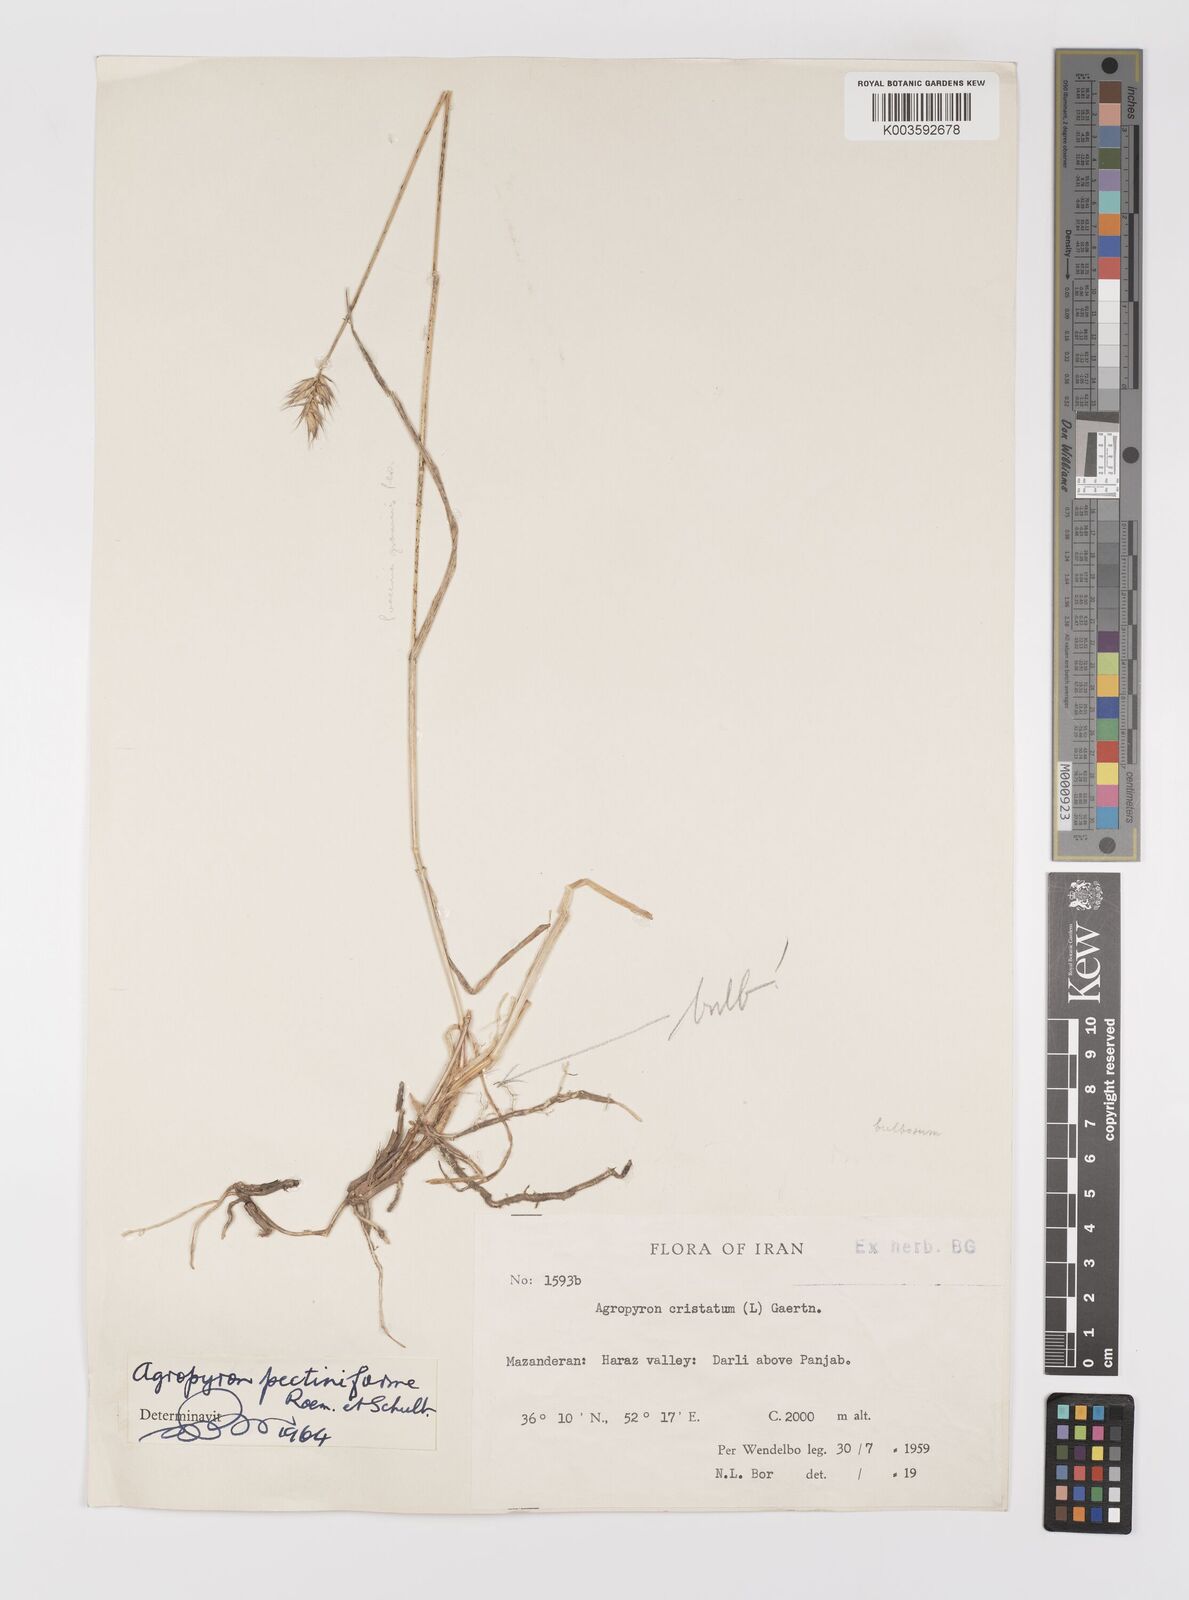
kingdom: Plantae
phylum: Tracheophyta
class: Liliopsida
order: Poales
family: Poaceae
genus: Agropyron
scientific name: Agropyron
